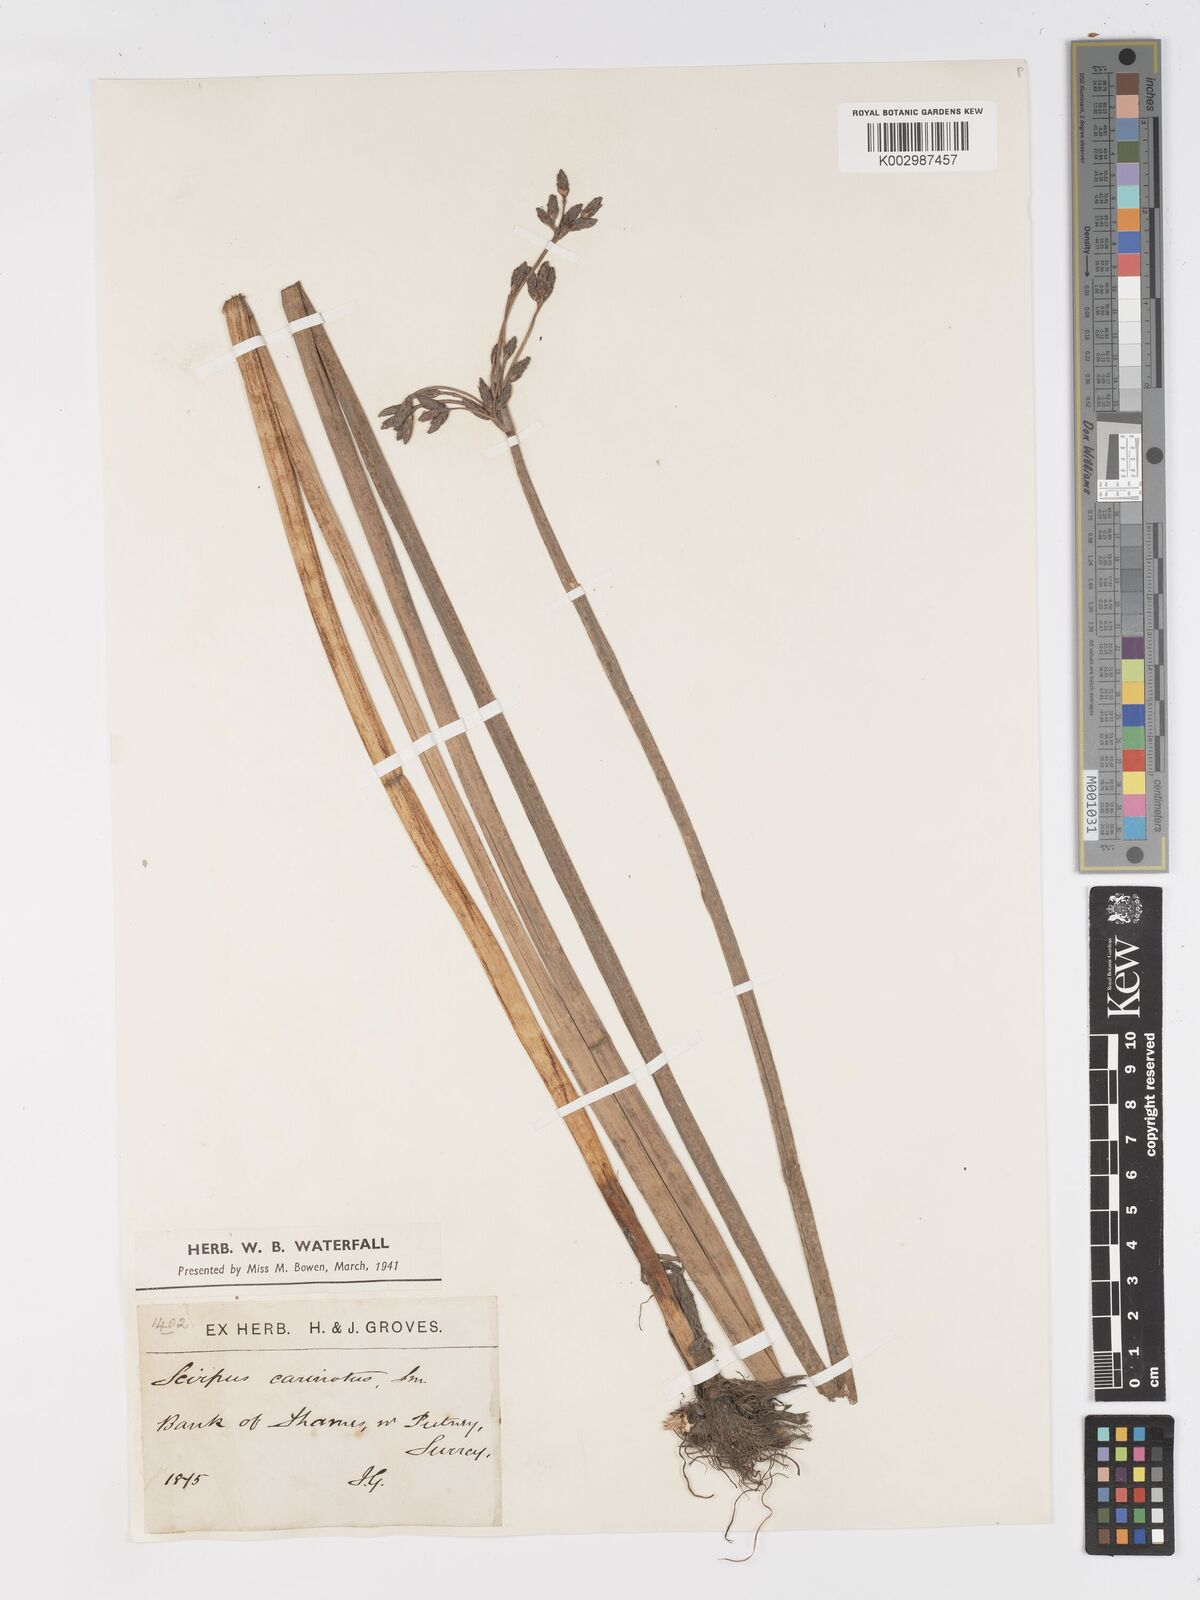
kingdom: Plantae
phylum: Tracheophyta
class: Liliopsida
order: Poales
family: Cyperaceae
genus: Schoenoplectus
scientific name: Schoenoplectus carinatus
